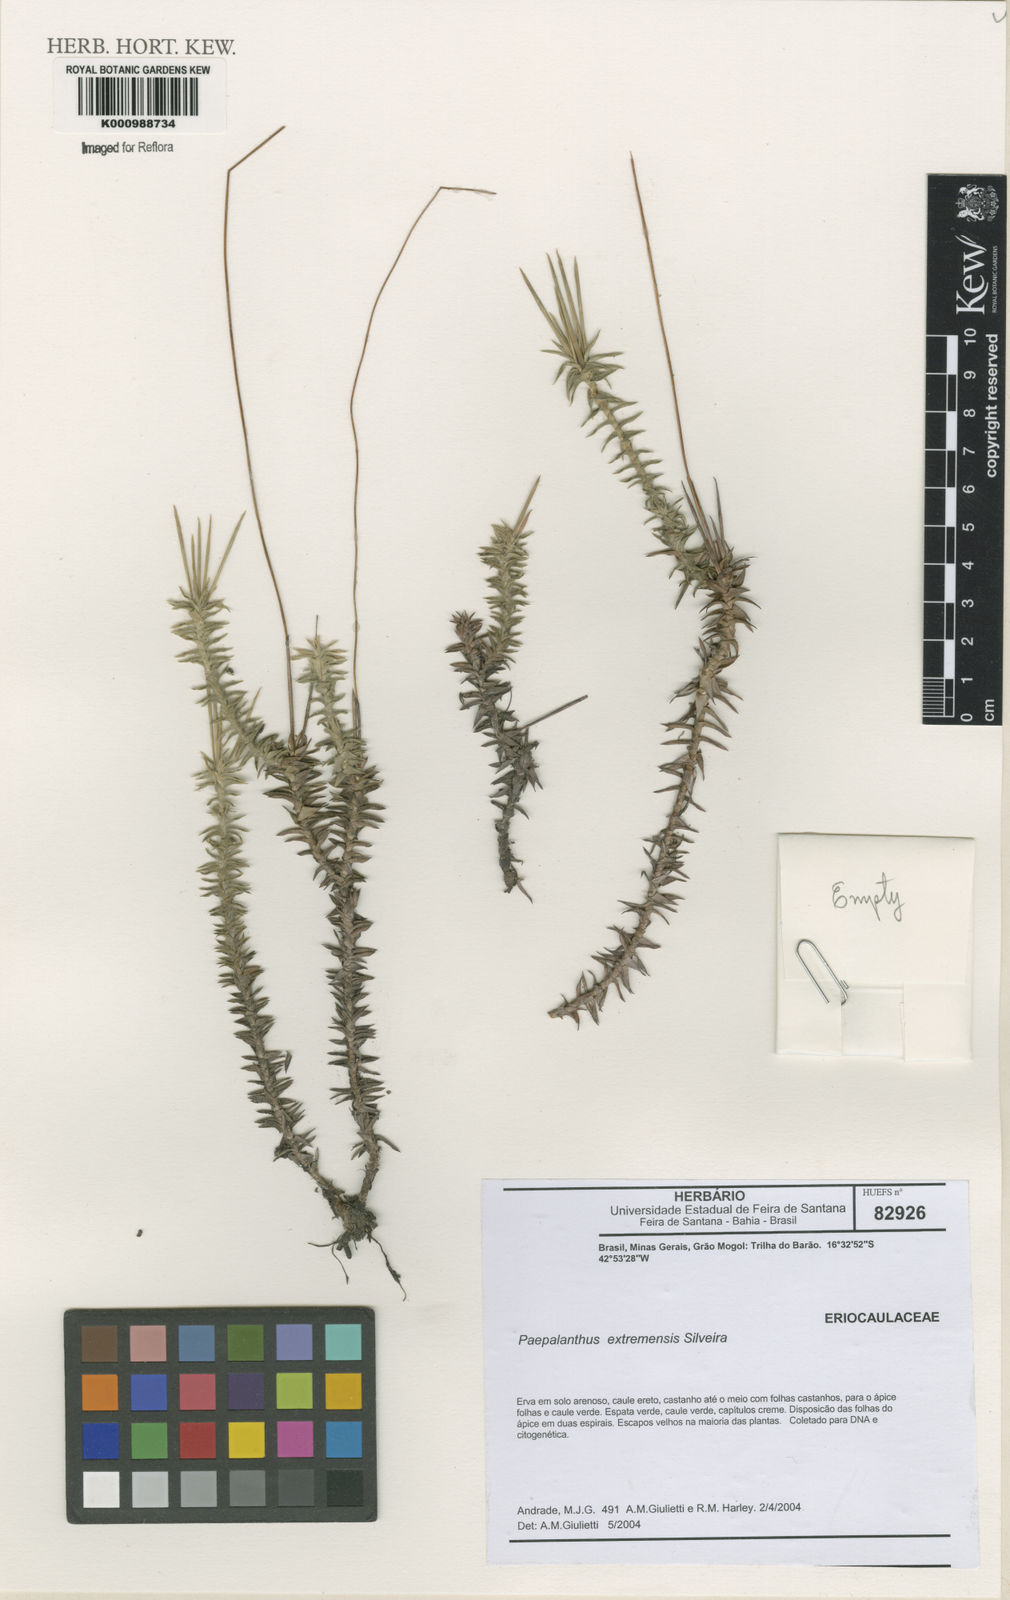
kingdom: Plantae
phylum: Tracheophyta
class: Liliopsida
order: Poales
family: Eriocaulaceae
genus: Paepalanthus
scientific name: Paepalanthus gleasonii
